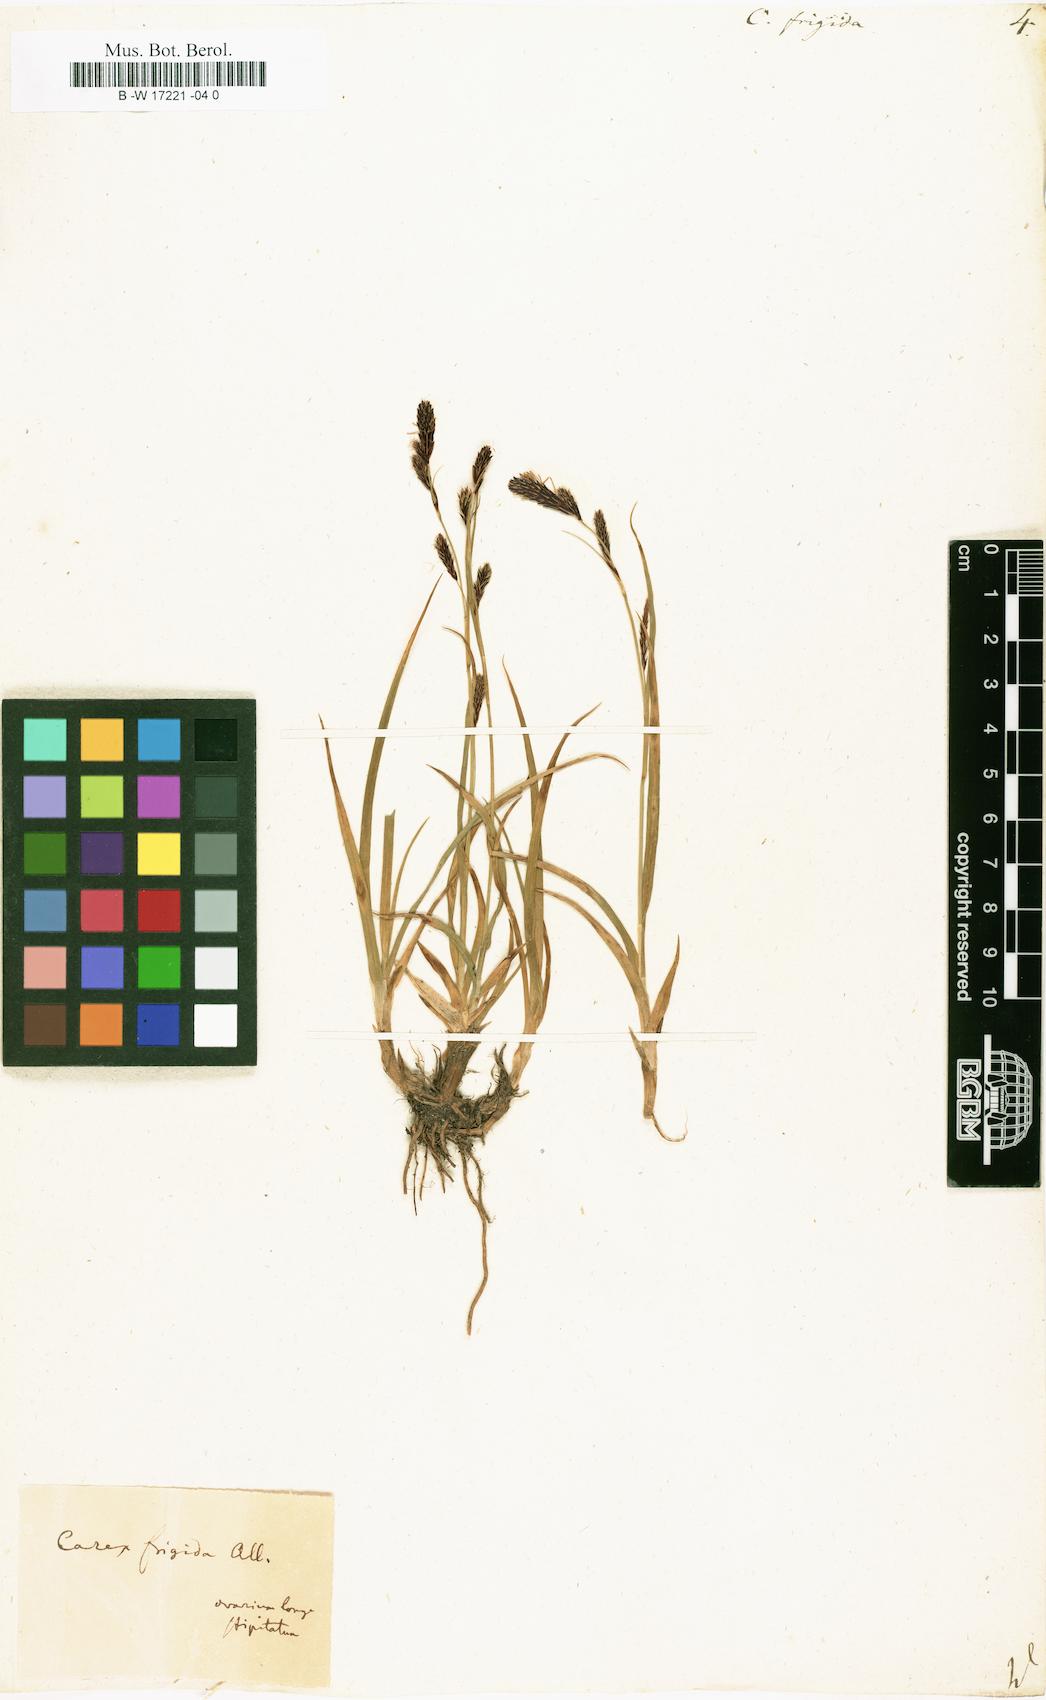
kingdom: Plantae
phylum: Tracheophyta
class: Liliopsida
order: Poales
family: Cyperaceae
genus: Carex
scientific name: Carex frigida
